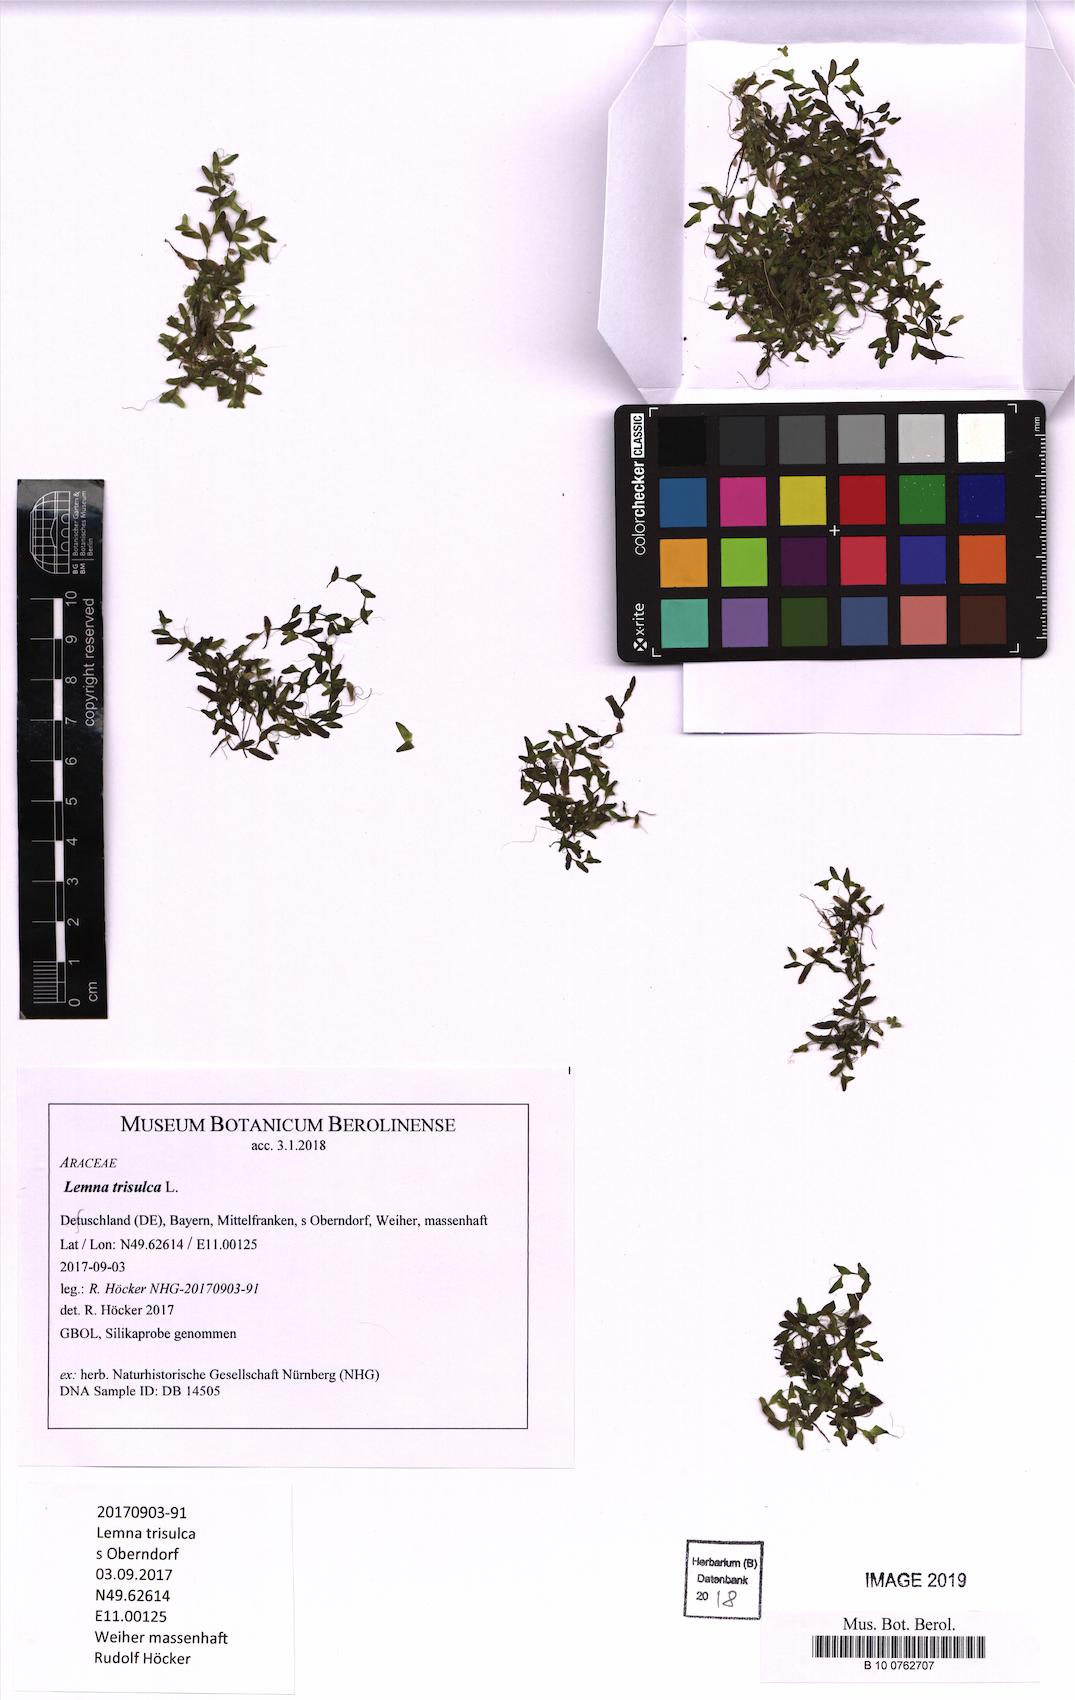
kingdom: Plantae
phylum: Tracheophyta
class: Liliopsida
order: Alismatales
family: Araceae
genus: Lemna
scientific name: Lemna trisulca
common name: Ivy-leaved duckweed
